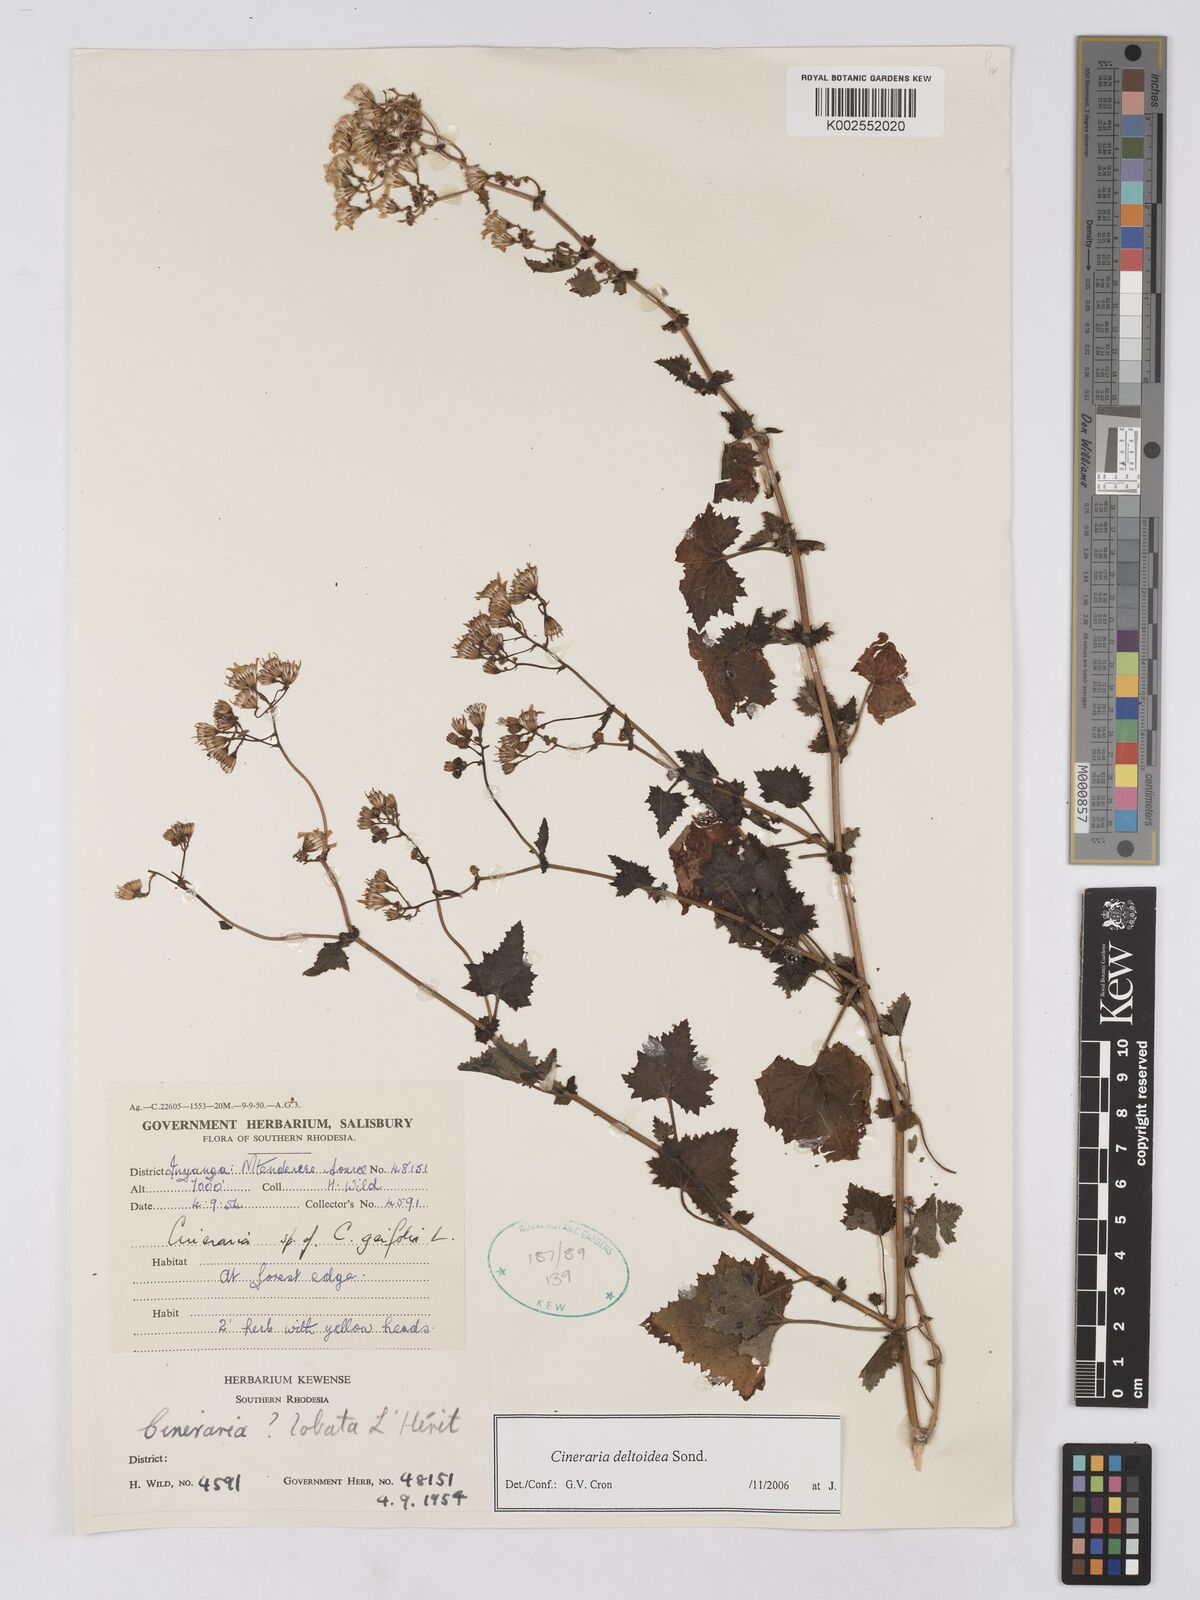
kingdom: Plantae
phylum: Tracheophyta
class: Magnoliopsida
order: Asterales
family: Asteraceae
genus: Cineraria
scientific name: Cineraria deltoidea
